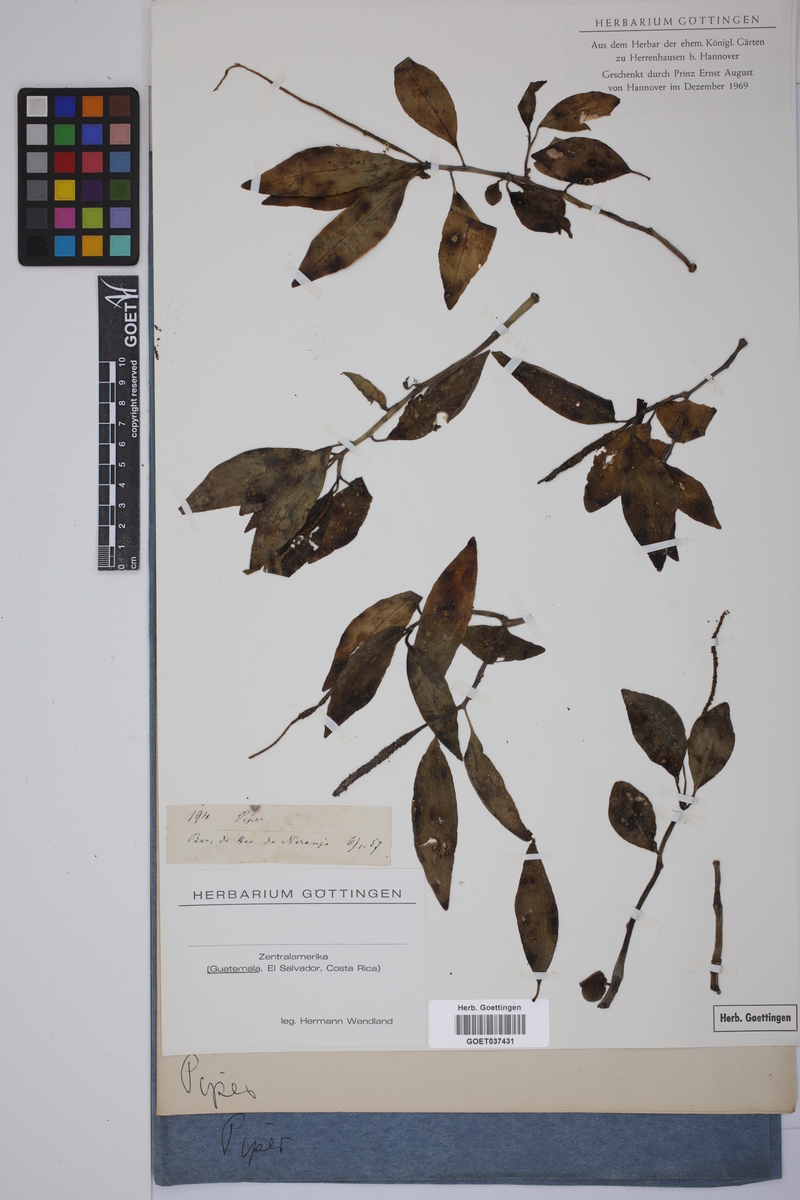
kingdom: Plantae
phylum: Tracheophyta
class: Magnoliopsida
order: Piperales
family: Piperaceae
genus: Piper
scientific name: Piper
